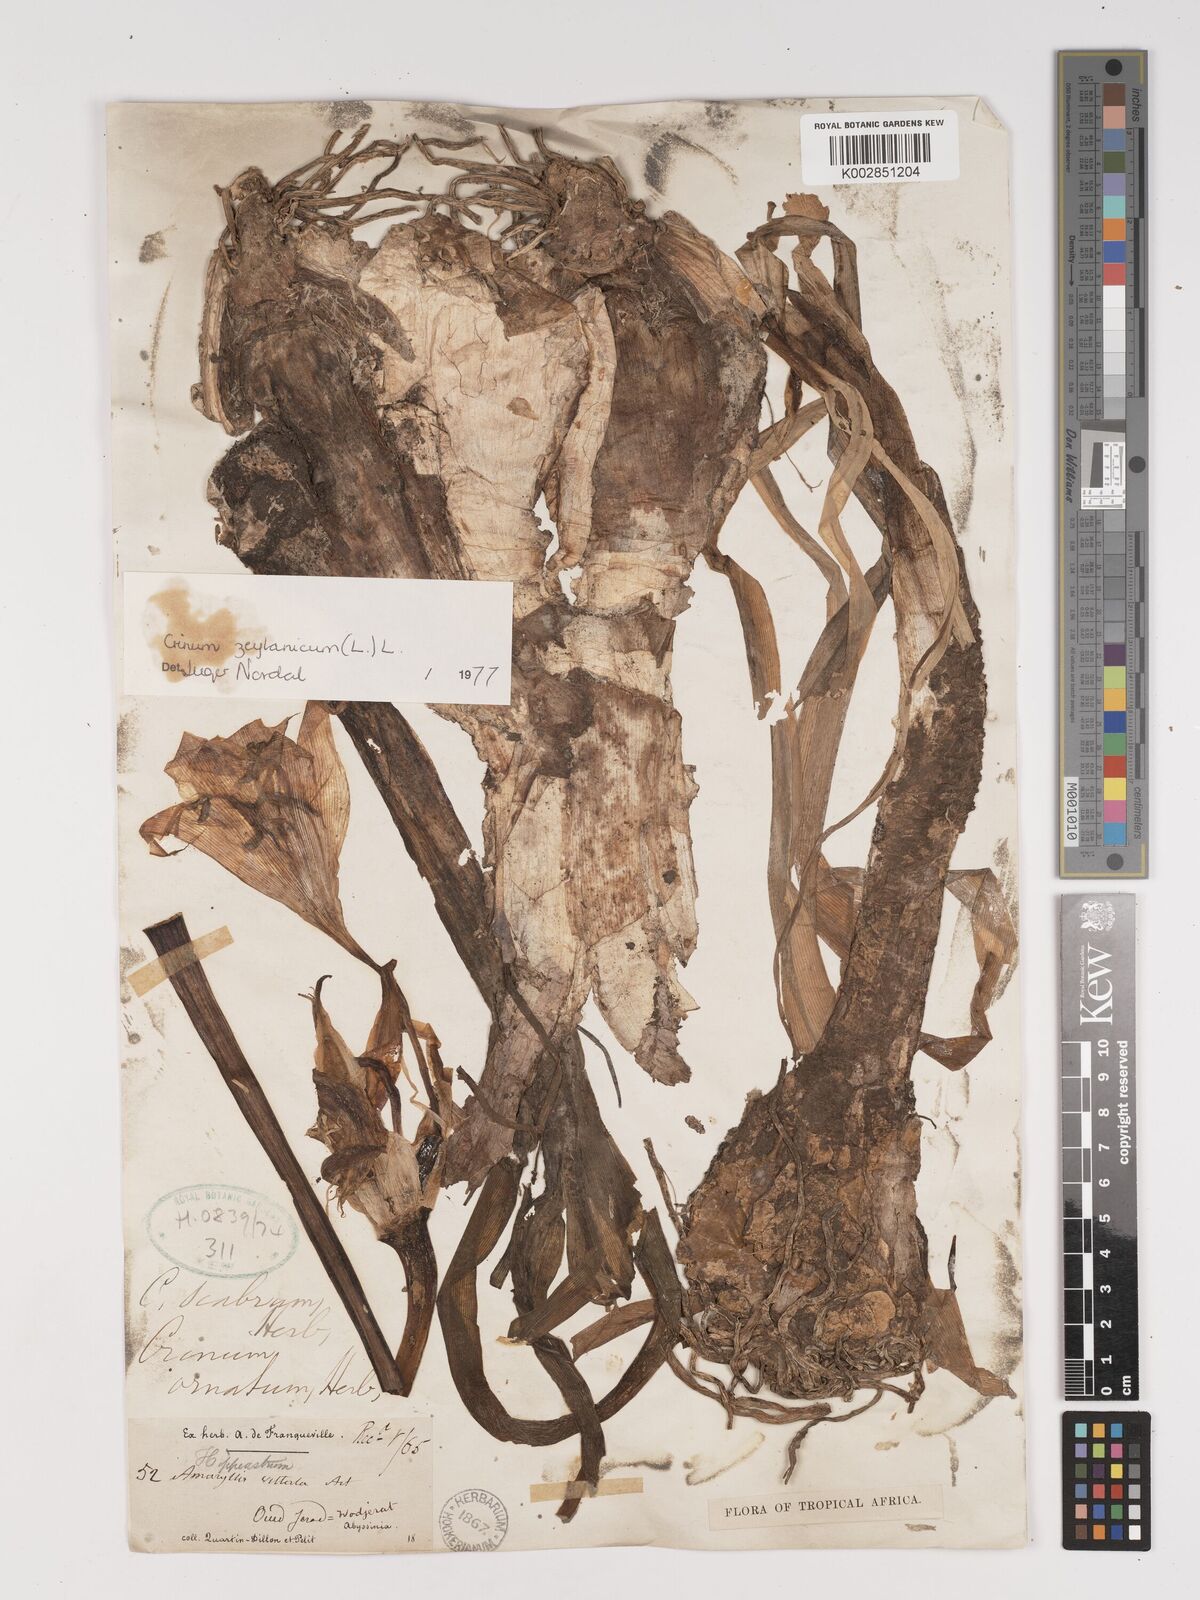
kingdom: Plantae
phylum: Tracheophyta
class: Liliopsida
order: Asparagales
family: Amaryllidaceae
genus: Crinum
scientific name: Crinum zeylanicum
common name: Ceylon swamplily
